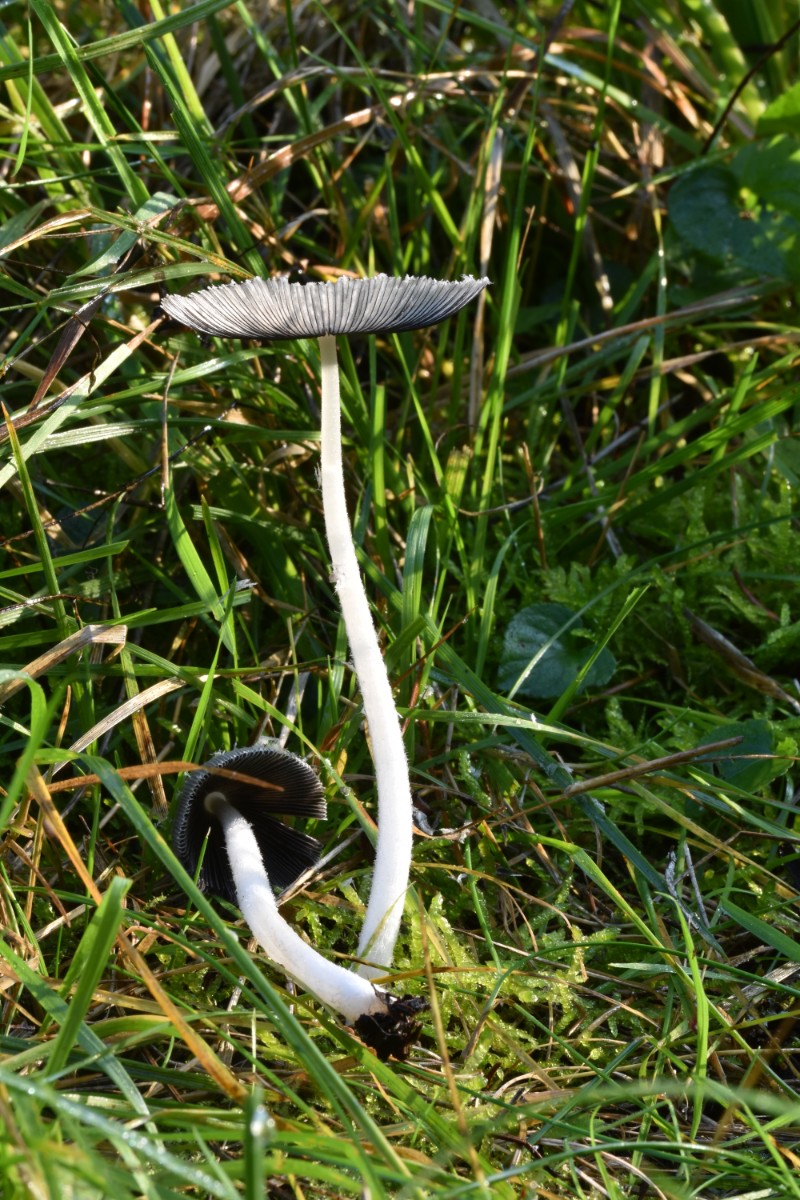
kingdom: Fungi
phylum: Basidiomycota
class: Agaricomycetes
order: Agaricales
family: Psathyrellaceae
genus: Coprinopsis
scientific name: Coprinopsis lagopus
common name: dunstokket blækhat
